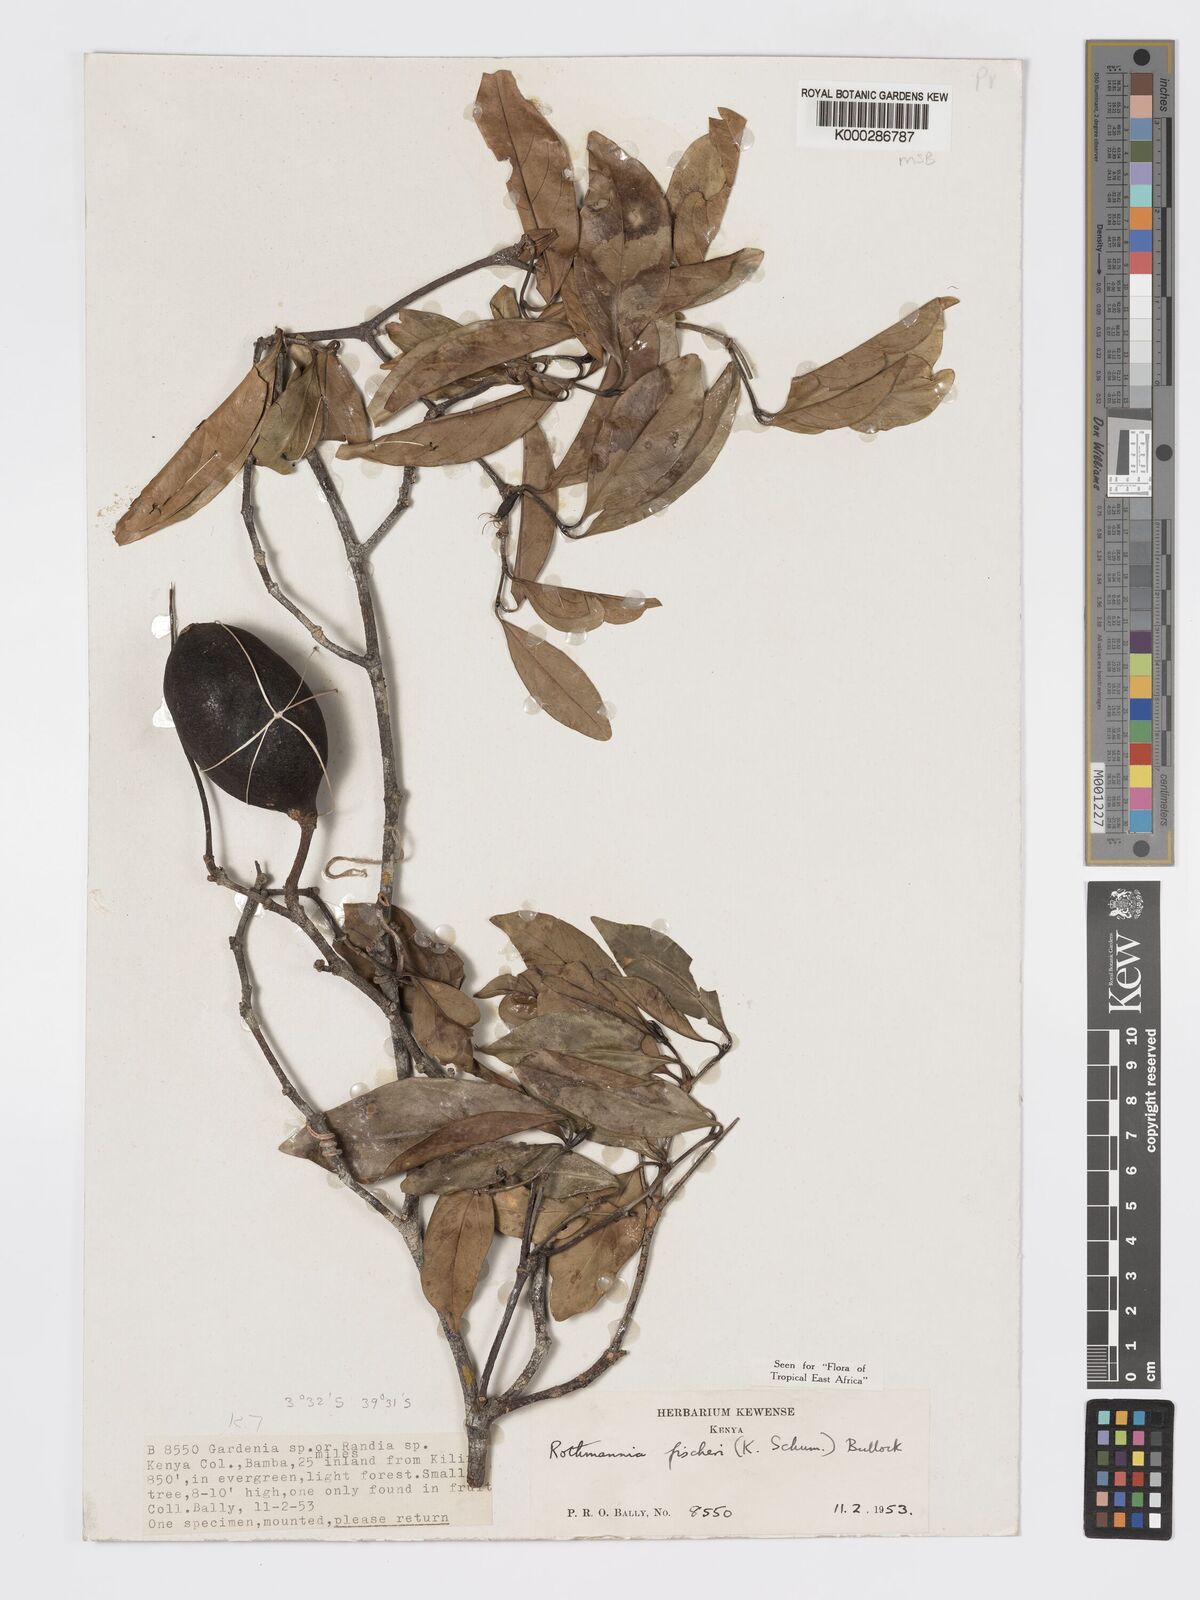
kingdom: Plantae
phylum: Tracheophyta
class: Magnoliopsida
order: Gentianales
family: Rubiaceae
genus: Rothmannia
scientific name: Rothmannia ravae
